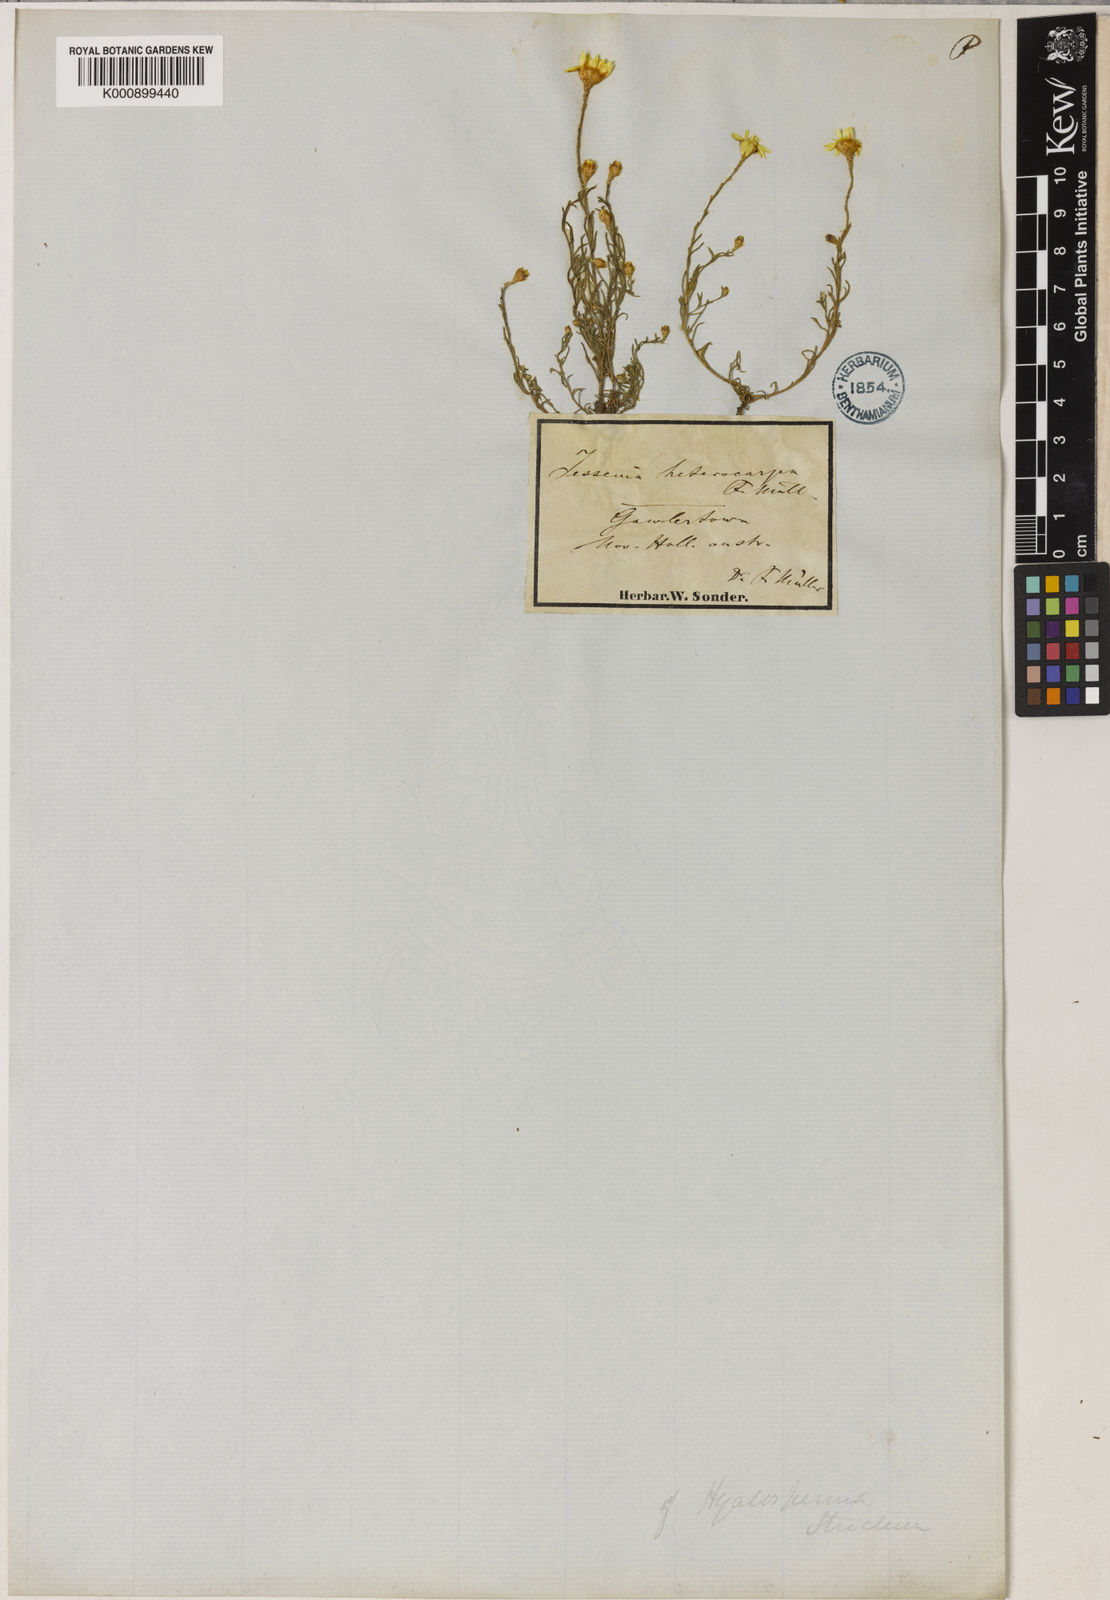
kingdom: Plantae
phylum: Tracheophyta
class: Magnoliopsida
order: Asterales
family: Asteraceae
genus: Hyalosperma
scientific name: Hyalosperma semisterile
